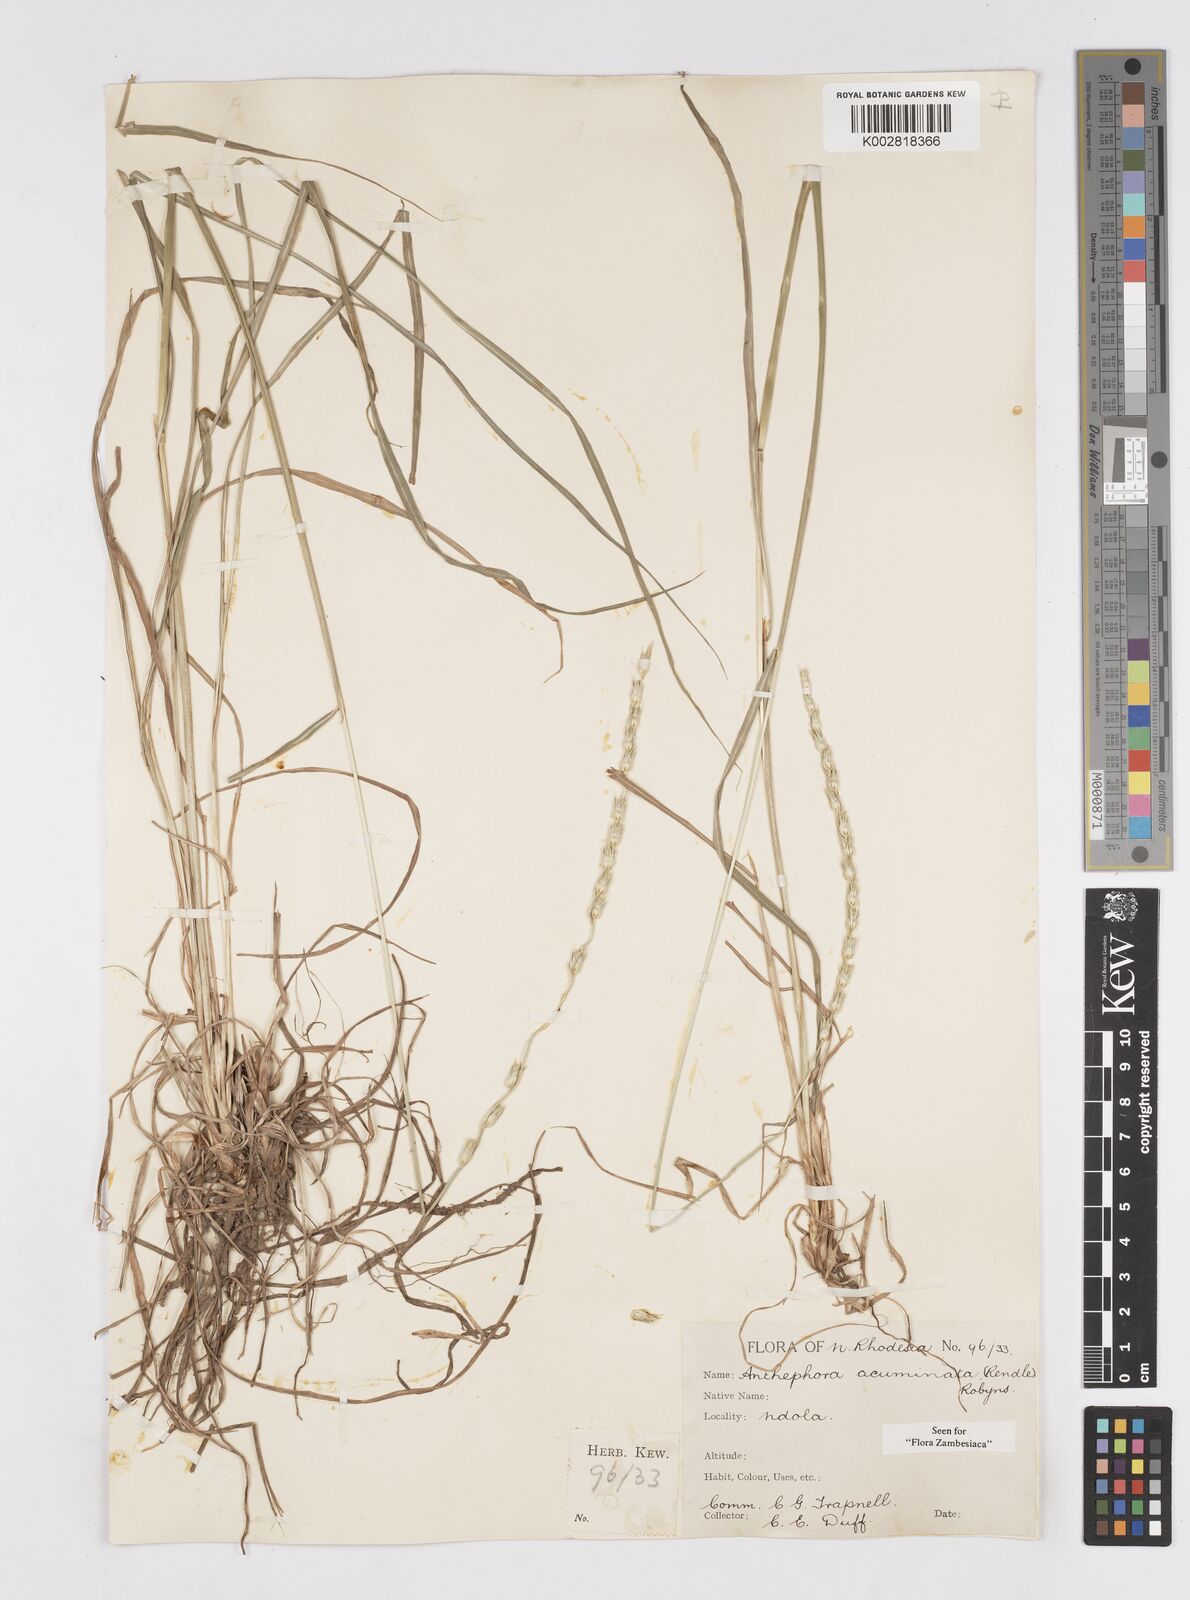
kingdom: Plantae
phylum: Tracheophyta
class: Liliopsida
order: Poales
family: Poaceae
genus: Anthephora
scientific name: Anthephora elongata
